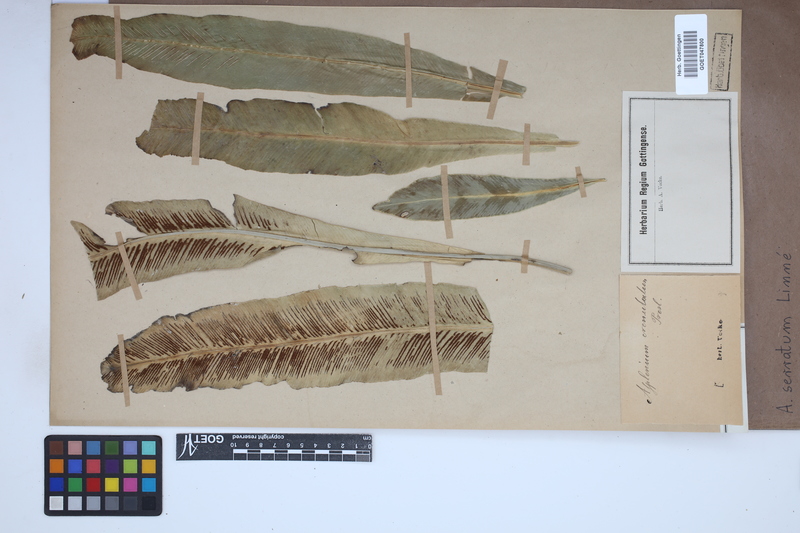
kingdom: Plantae
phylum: Tracheophyta
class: Polypodiopsida
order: Polypodiales
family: Aspleniaceae
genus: Asplenium
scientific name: Asplenium serratum
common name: Wild birdnest fern
